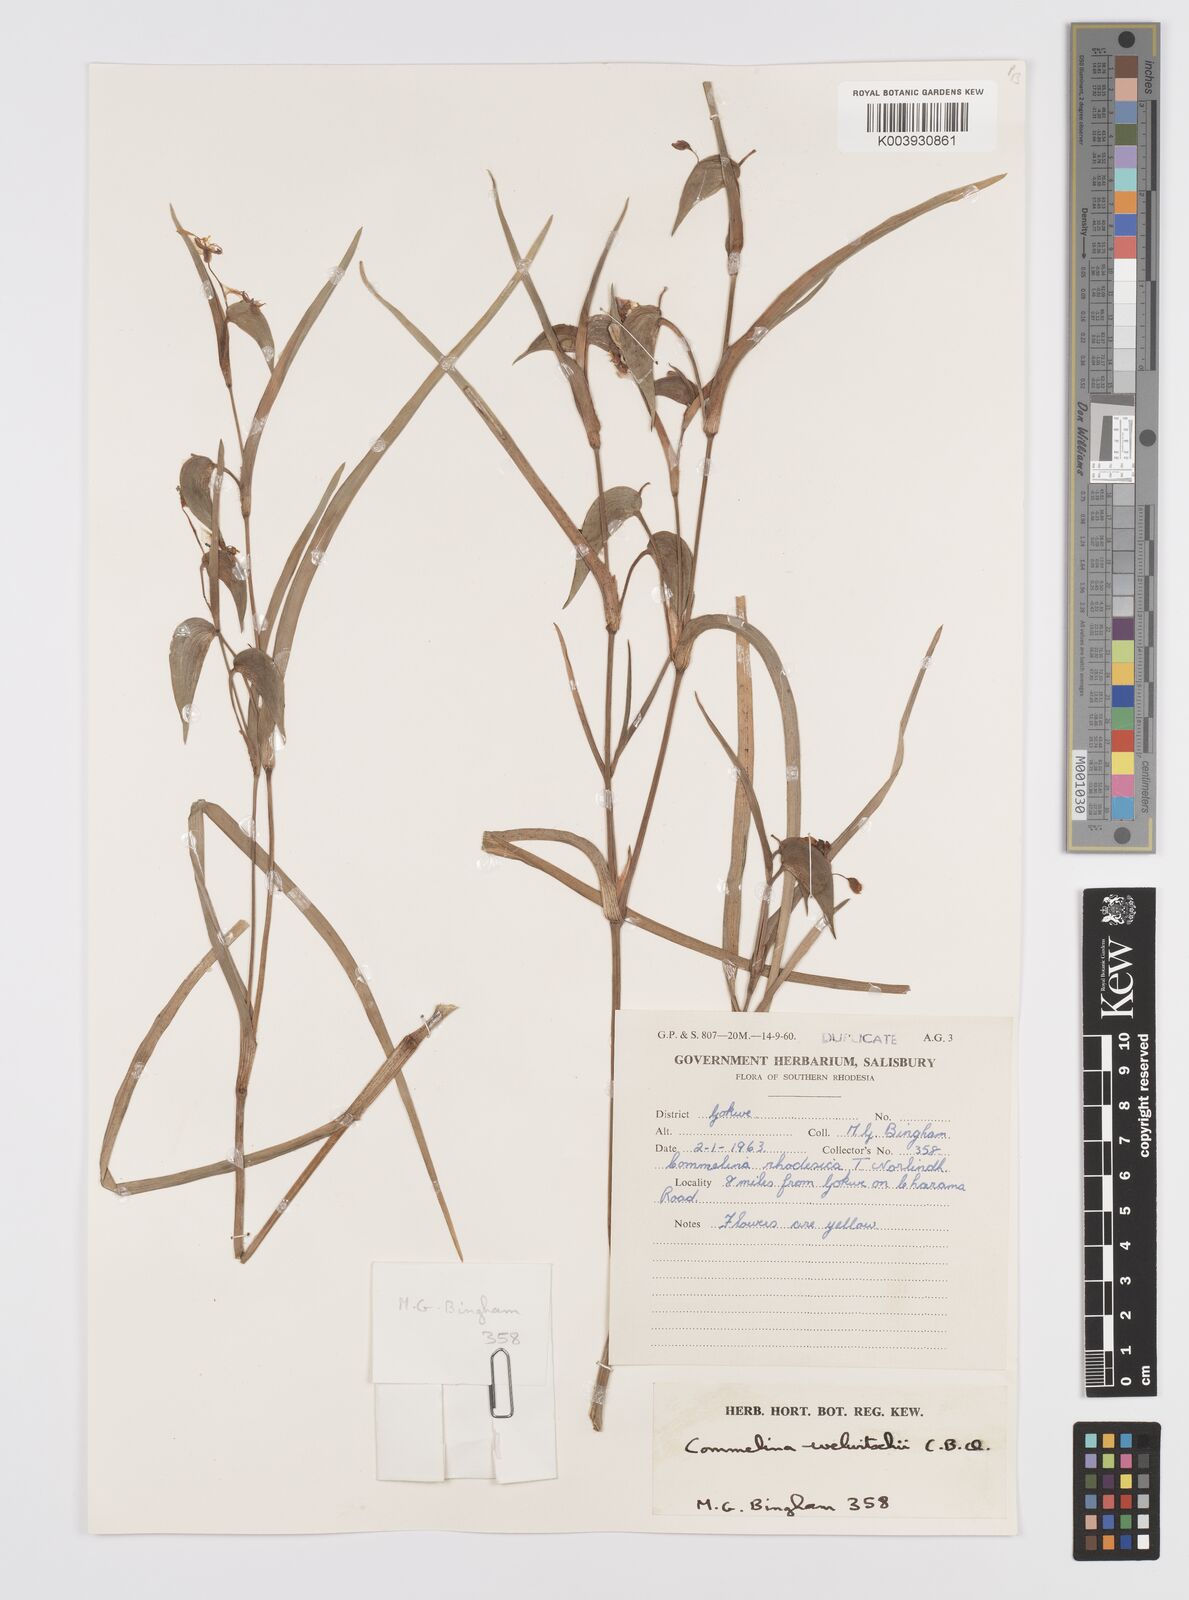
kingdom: Plantae
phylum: Tracheophyta
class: Liliopsida
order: Commelinales
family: Commelinaceae
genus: Commelina
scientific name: Commelina welwitschii
